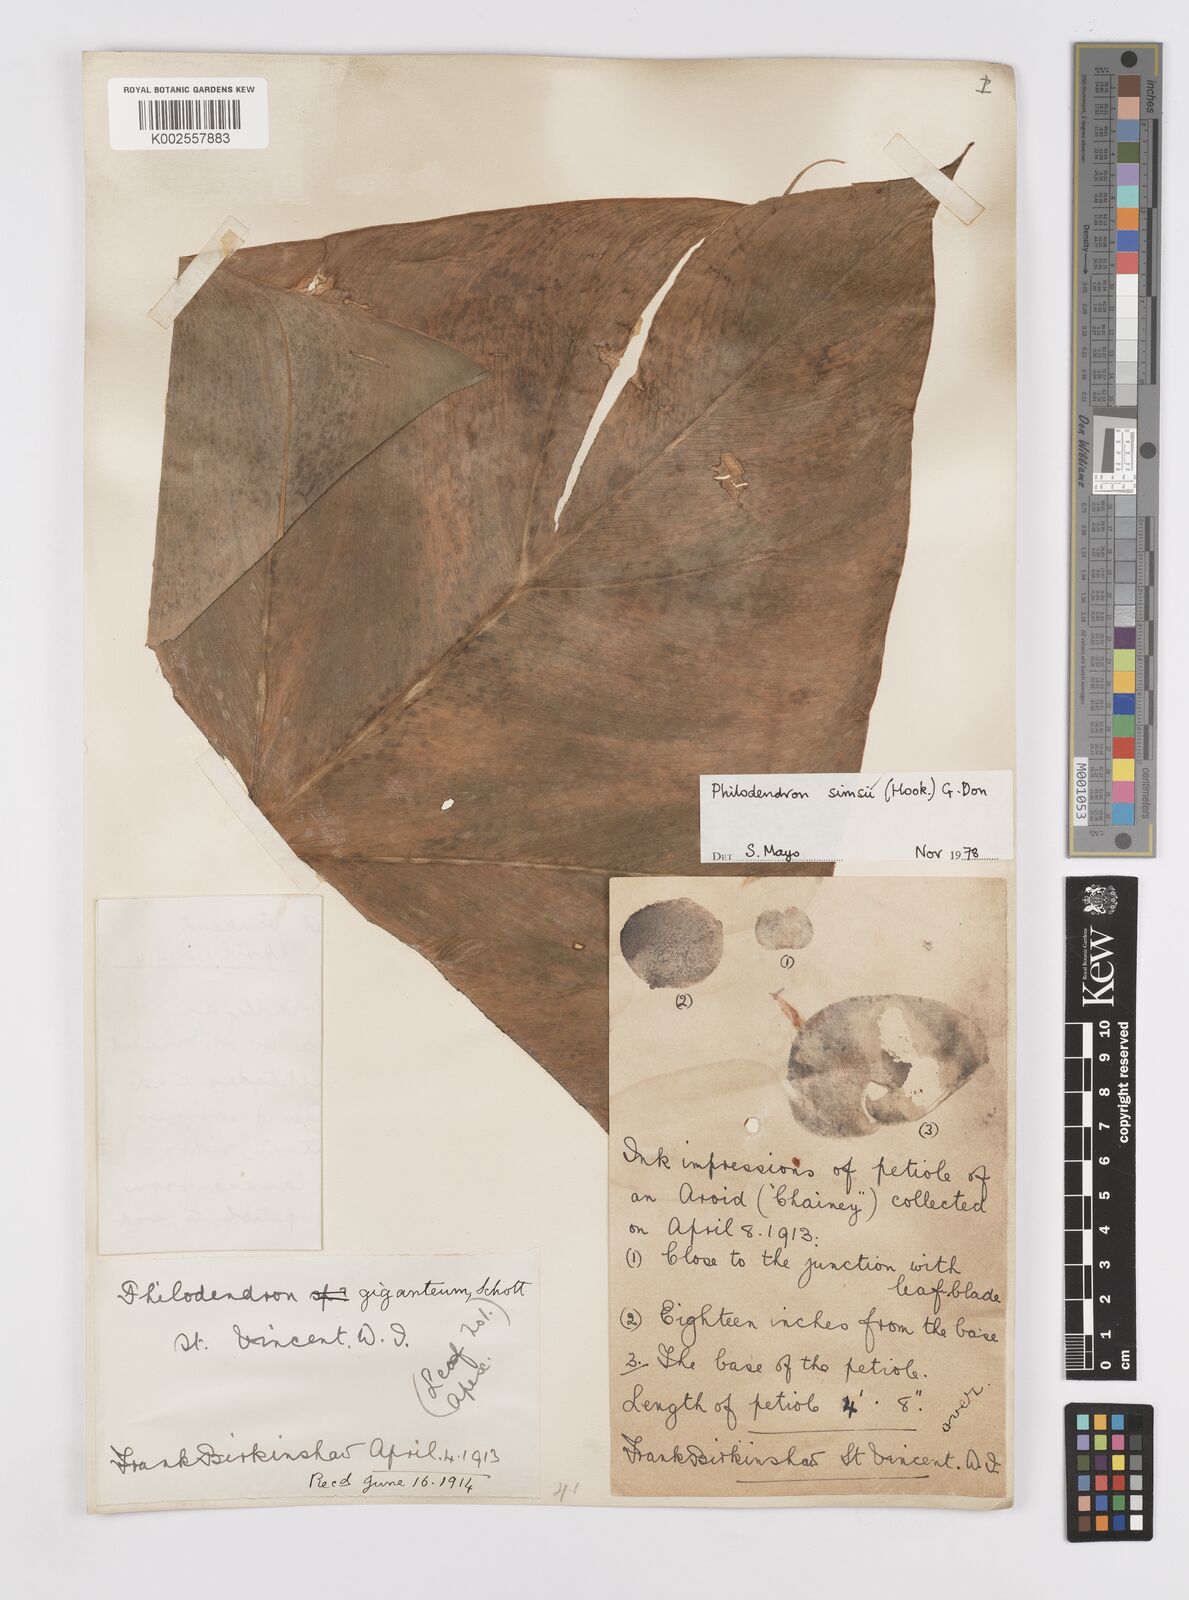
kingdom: Plantae
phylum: Tracheophyta
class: Liliopsida
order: Alismatales
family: Araceae
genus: Philodendron
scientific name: Philodendron
